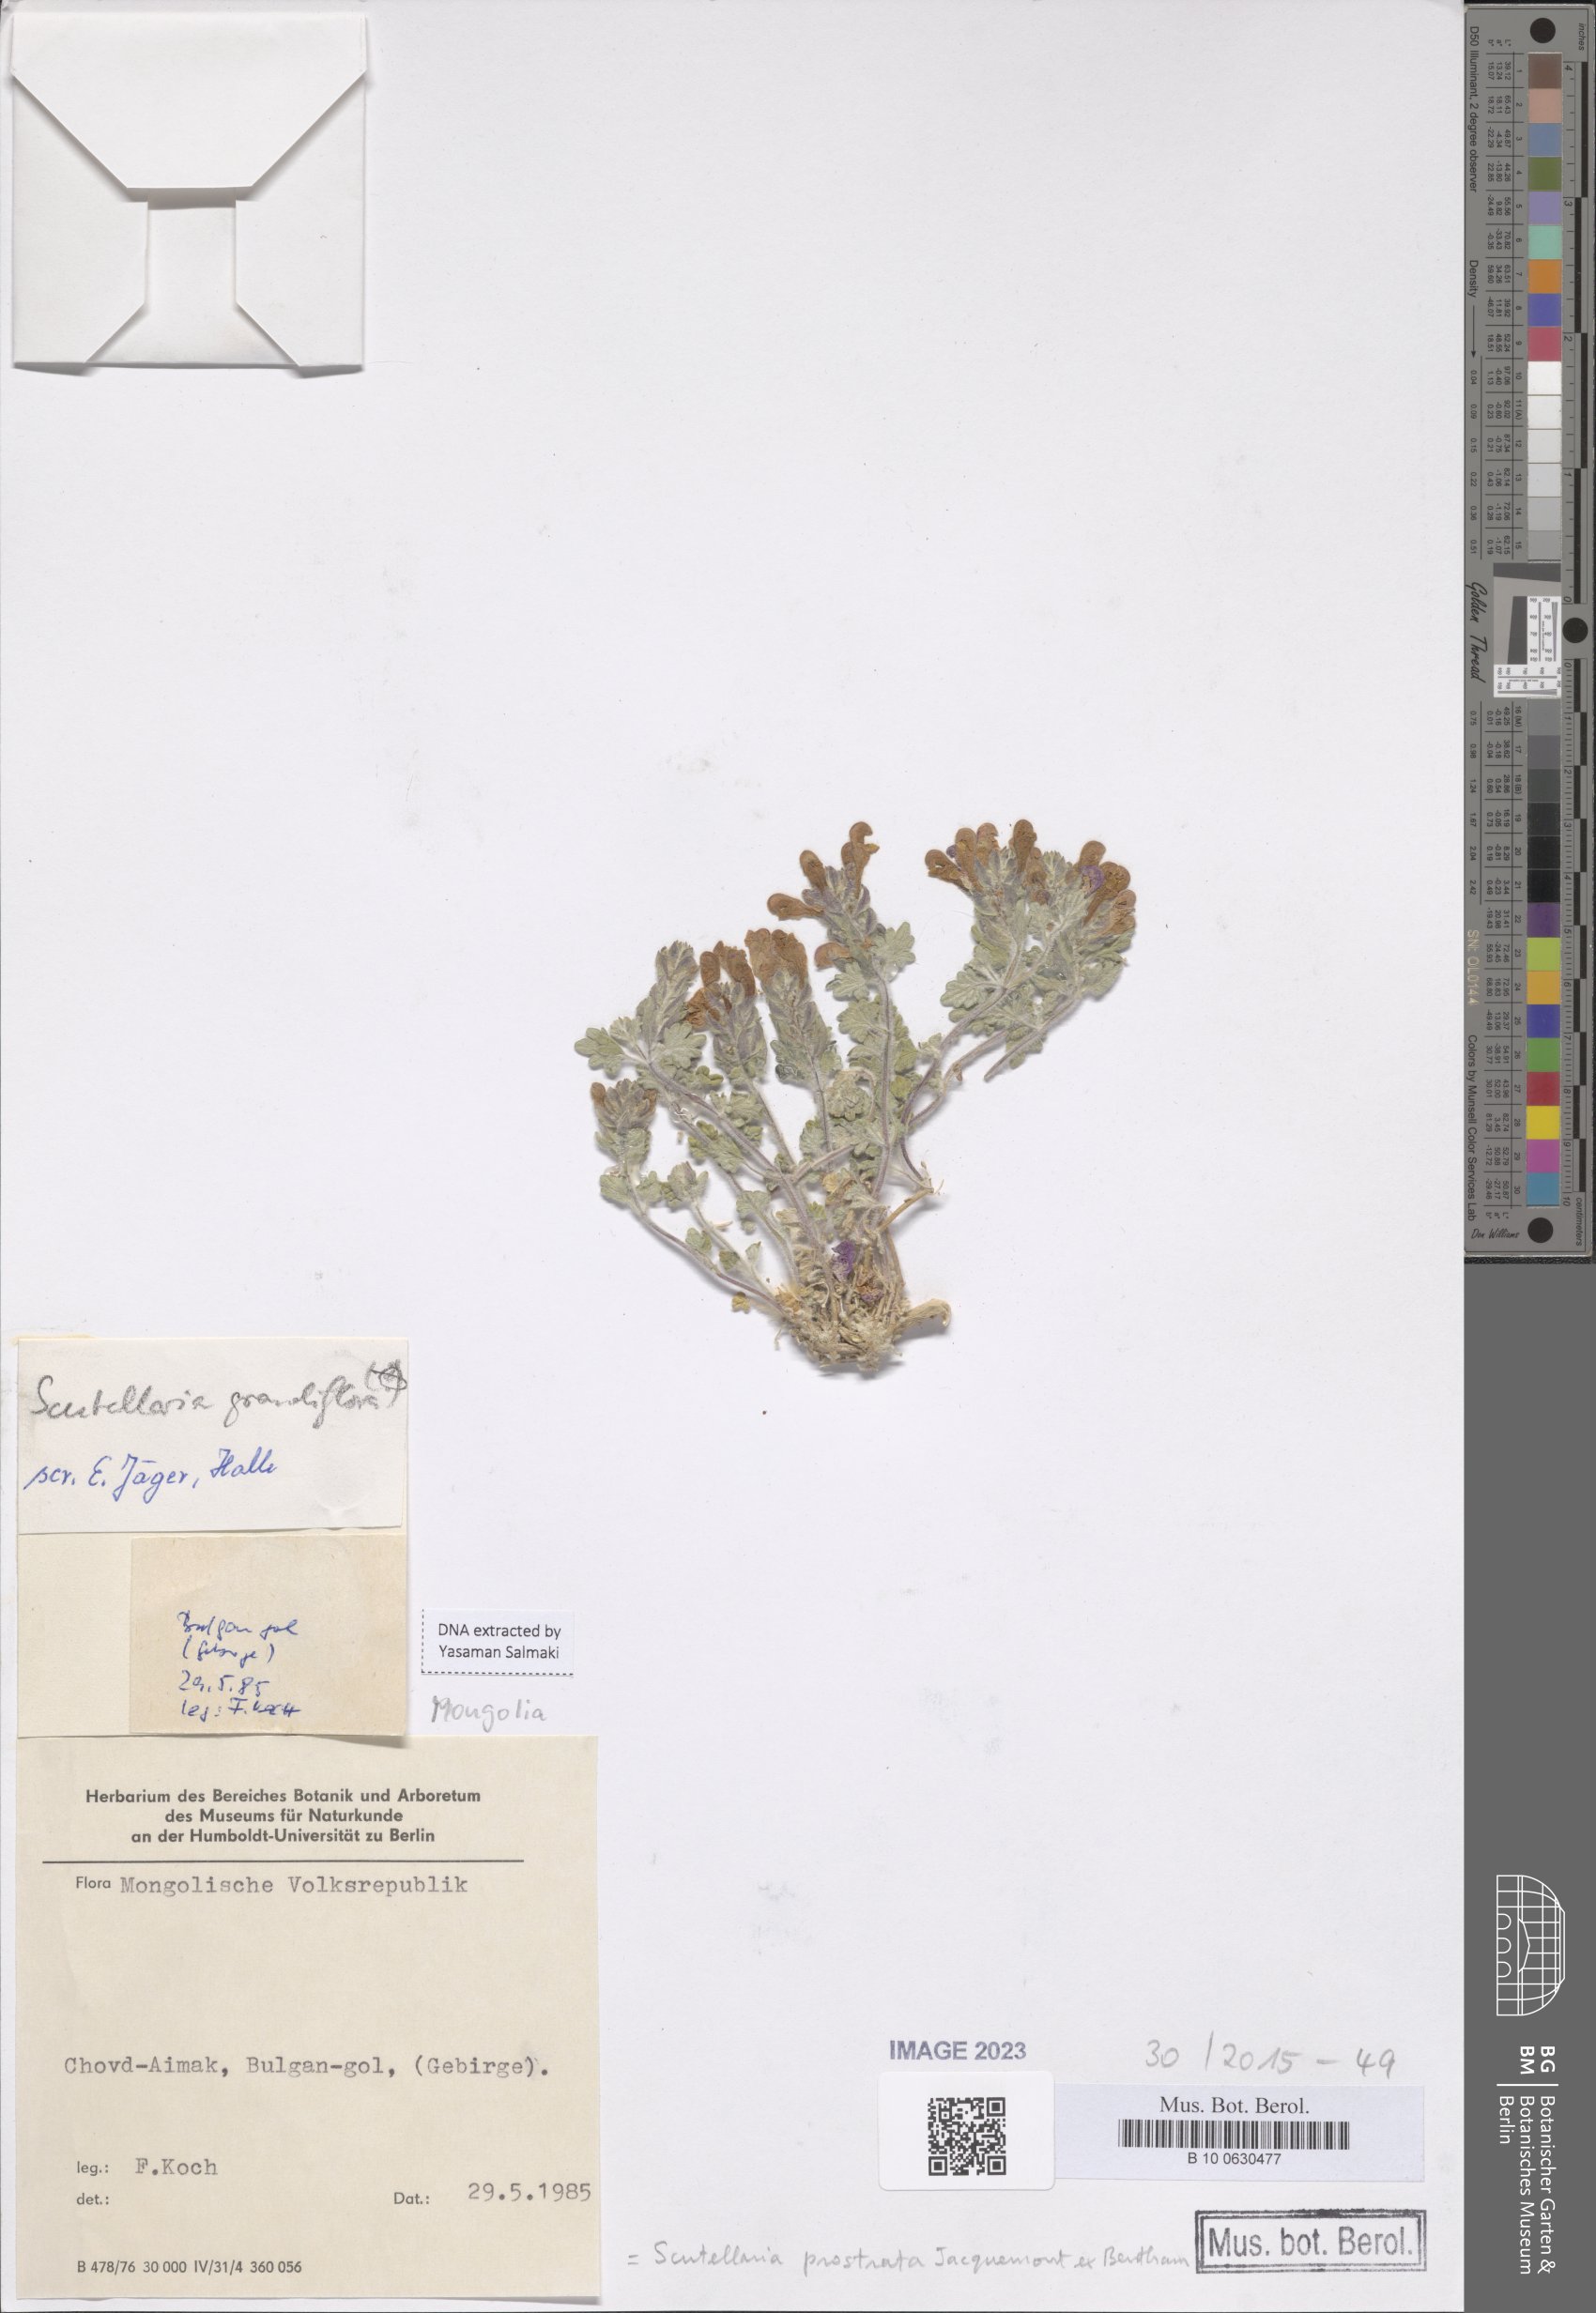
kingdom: Plantae
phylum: Tracheophyta
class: Magnoliopsida
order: Lamiales
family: Lamiaceae
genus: Scutellaria
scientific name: Scutellaria prostrata
